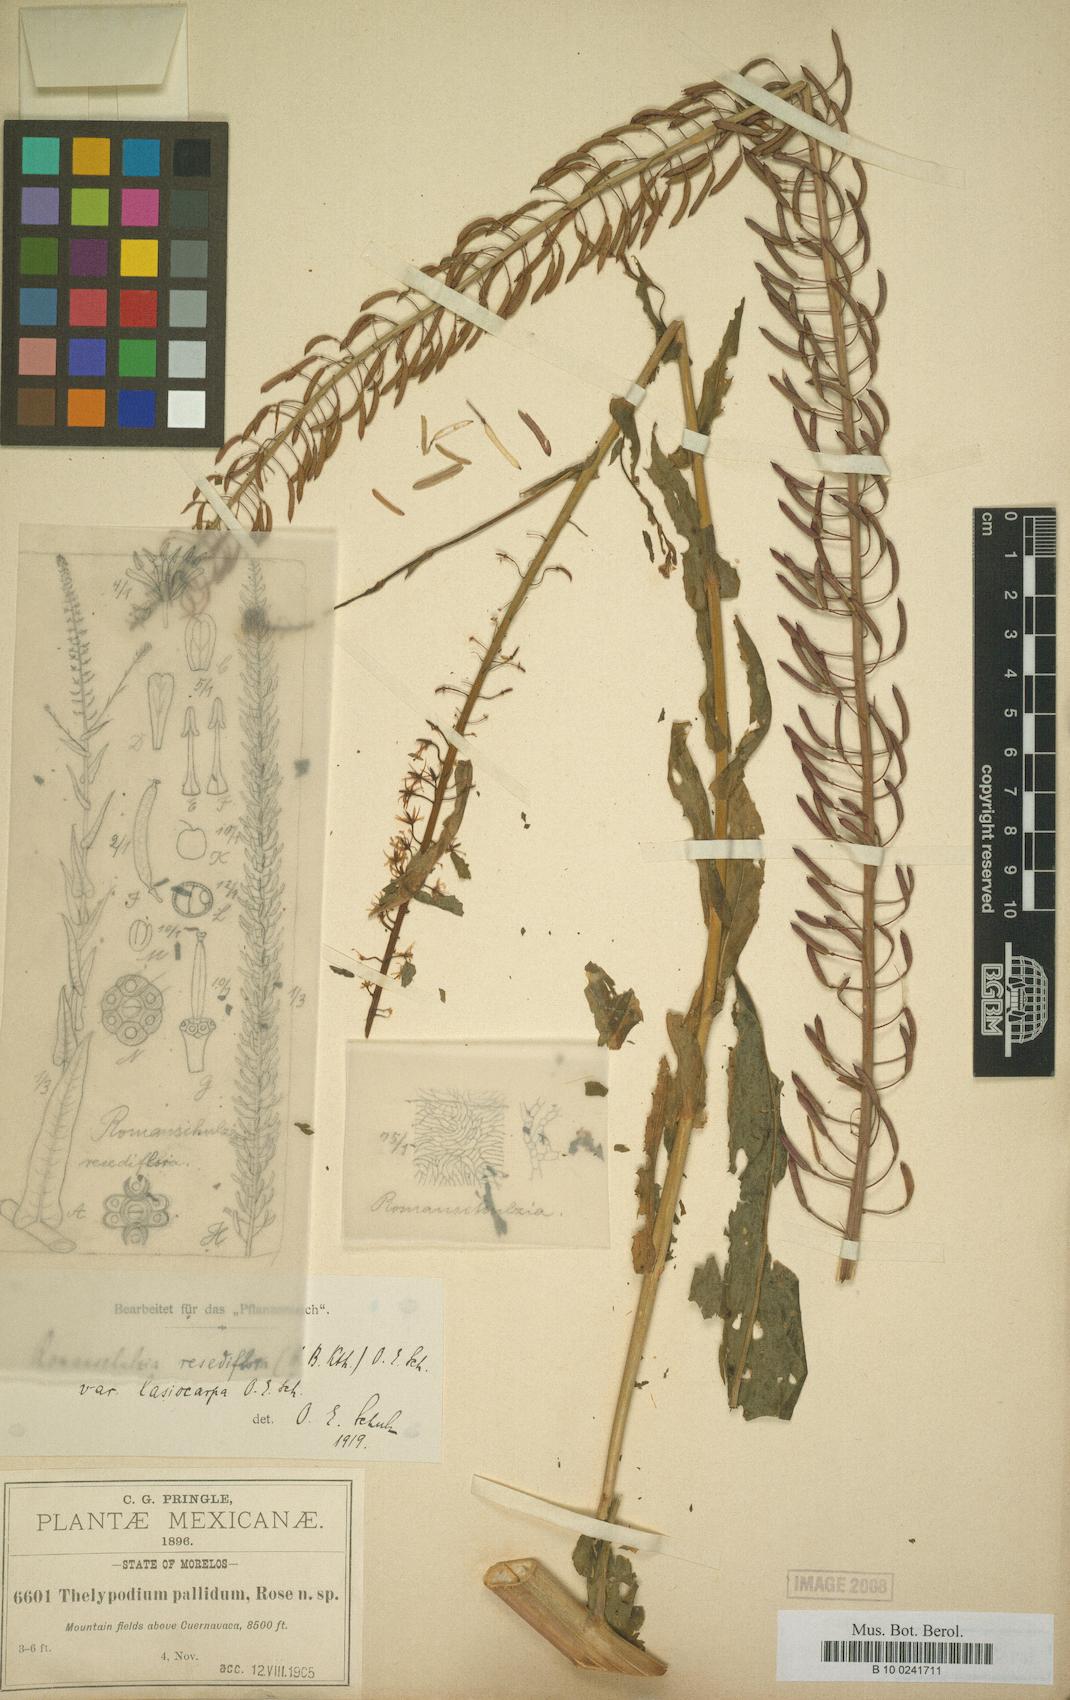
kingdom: Plantae
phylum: Tracheophyta
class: Magnoliopsida
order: Brassicales
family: Brassicaceae
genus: Romanschulzia
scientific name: Romanschulzia arabiformis
